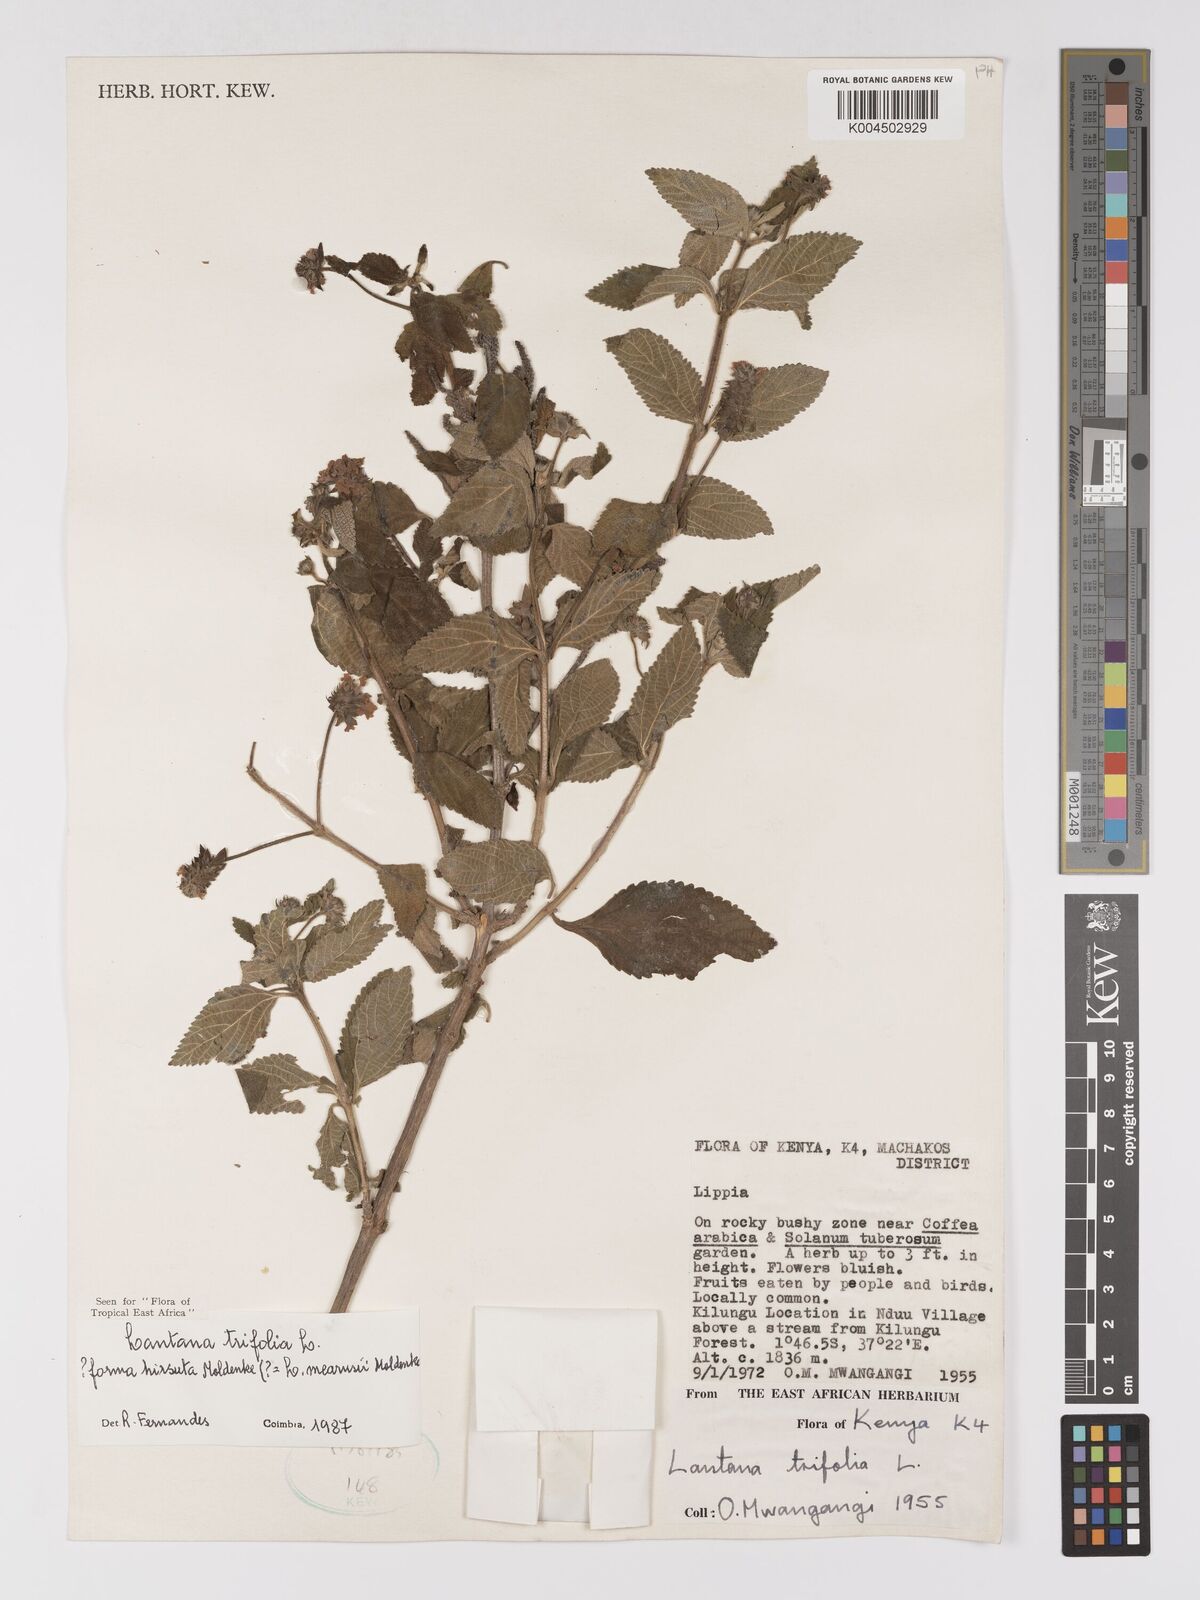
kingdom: Plantae
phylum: Tracheophyta
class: Magnoliopsida
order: Lamiales
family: Verbenaceae
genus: Lantana
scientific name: Lantana trifolia
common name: Sweet-sage
